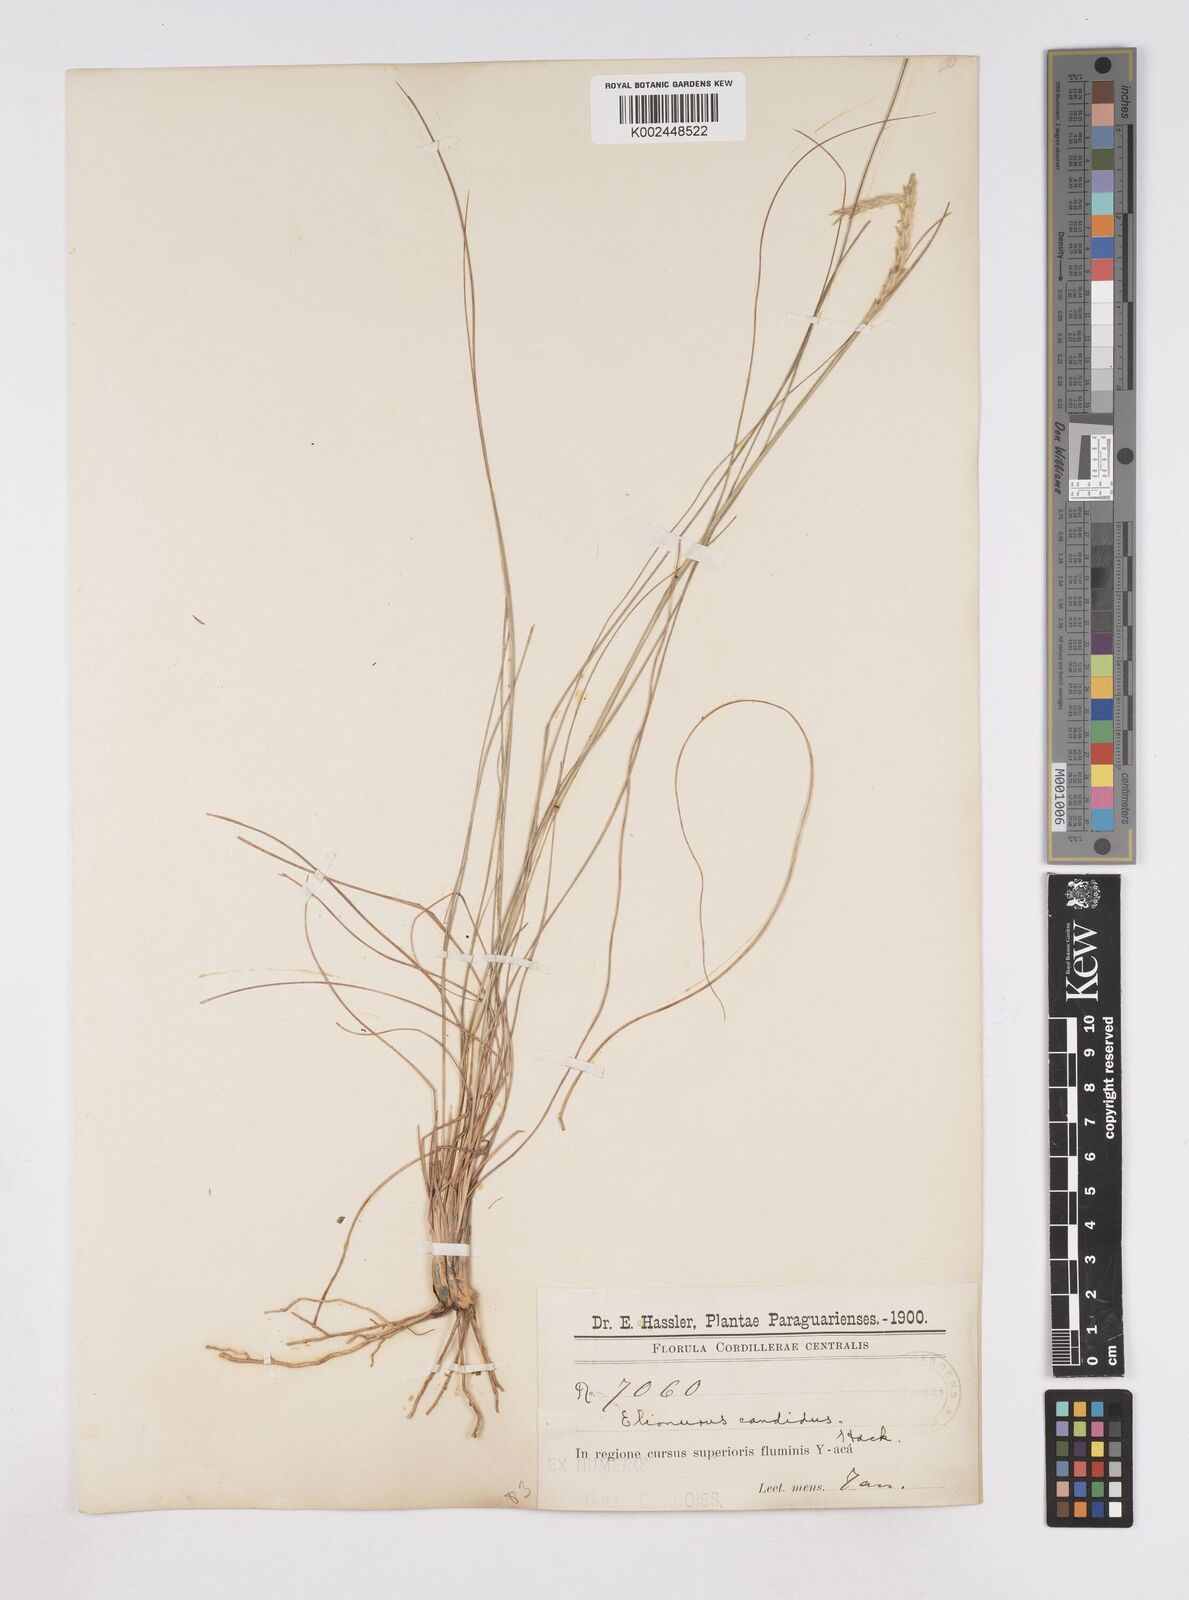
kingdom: Plantae
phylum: Tracheophyta
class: Liliopsida
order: Poales
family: Poaceae
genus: Elionurus
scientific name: Elionurus muticus
